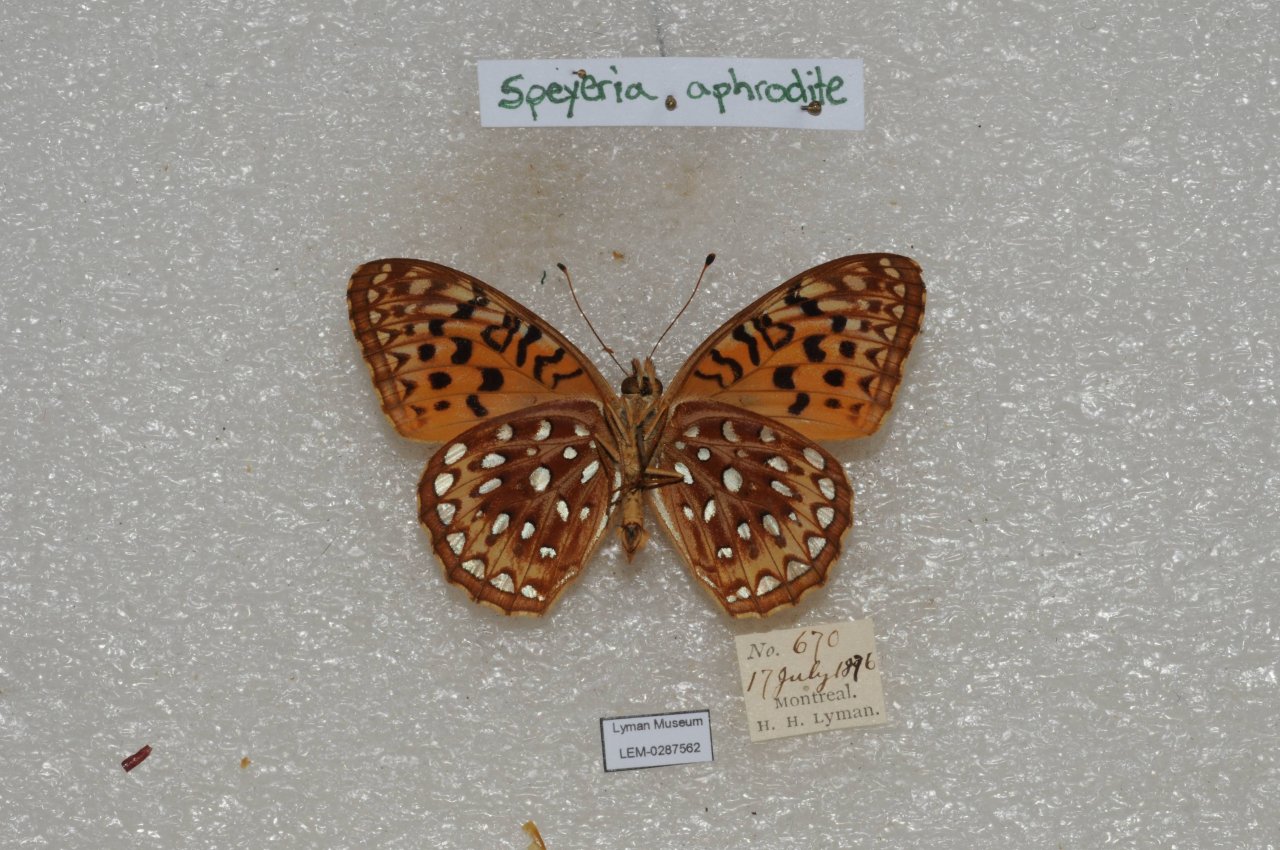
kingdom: Animalia
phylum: Arthropoda
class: Insecta
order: Lepidoptera
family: Nymphalidae
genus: Speyeria
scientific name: Speyeria aphrodite
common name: Aphrodite Fritillary
